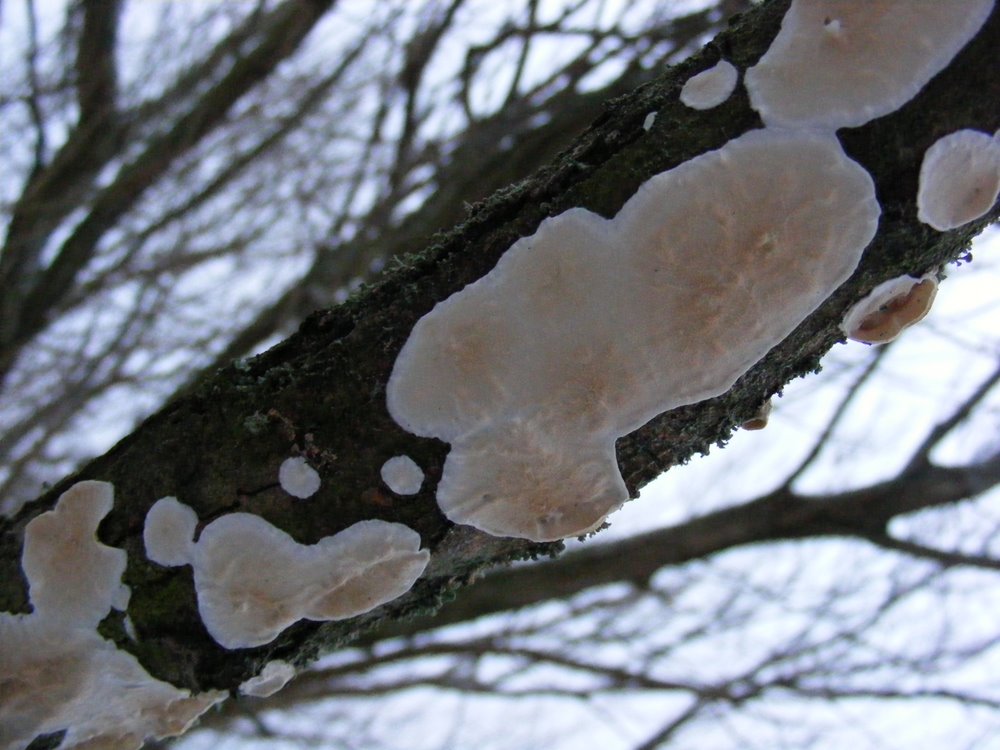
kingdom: Fungi
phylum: Basidiomycota
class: Agaricomycetes
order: Polyporales
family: Irpicaceae
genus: Byssomerulius
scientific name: Byssomerulius corium
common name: læder-åresvamp
